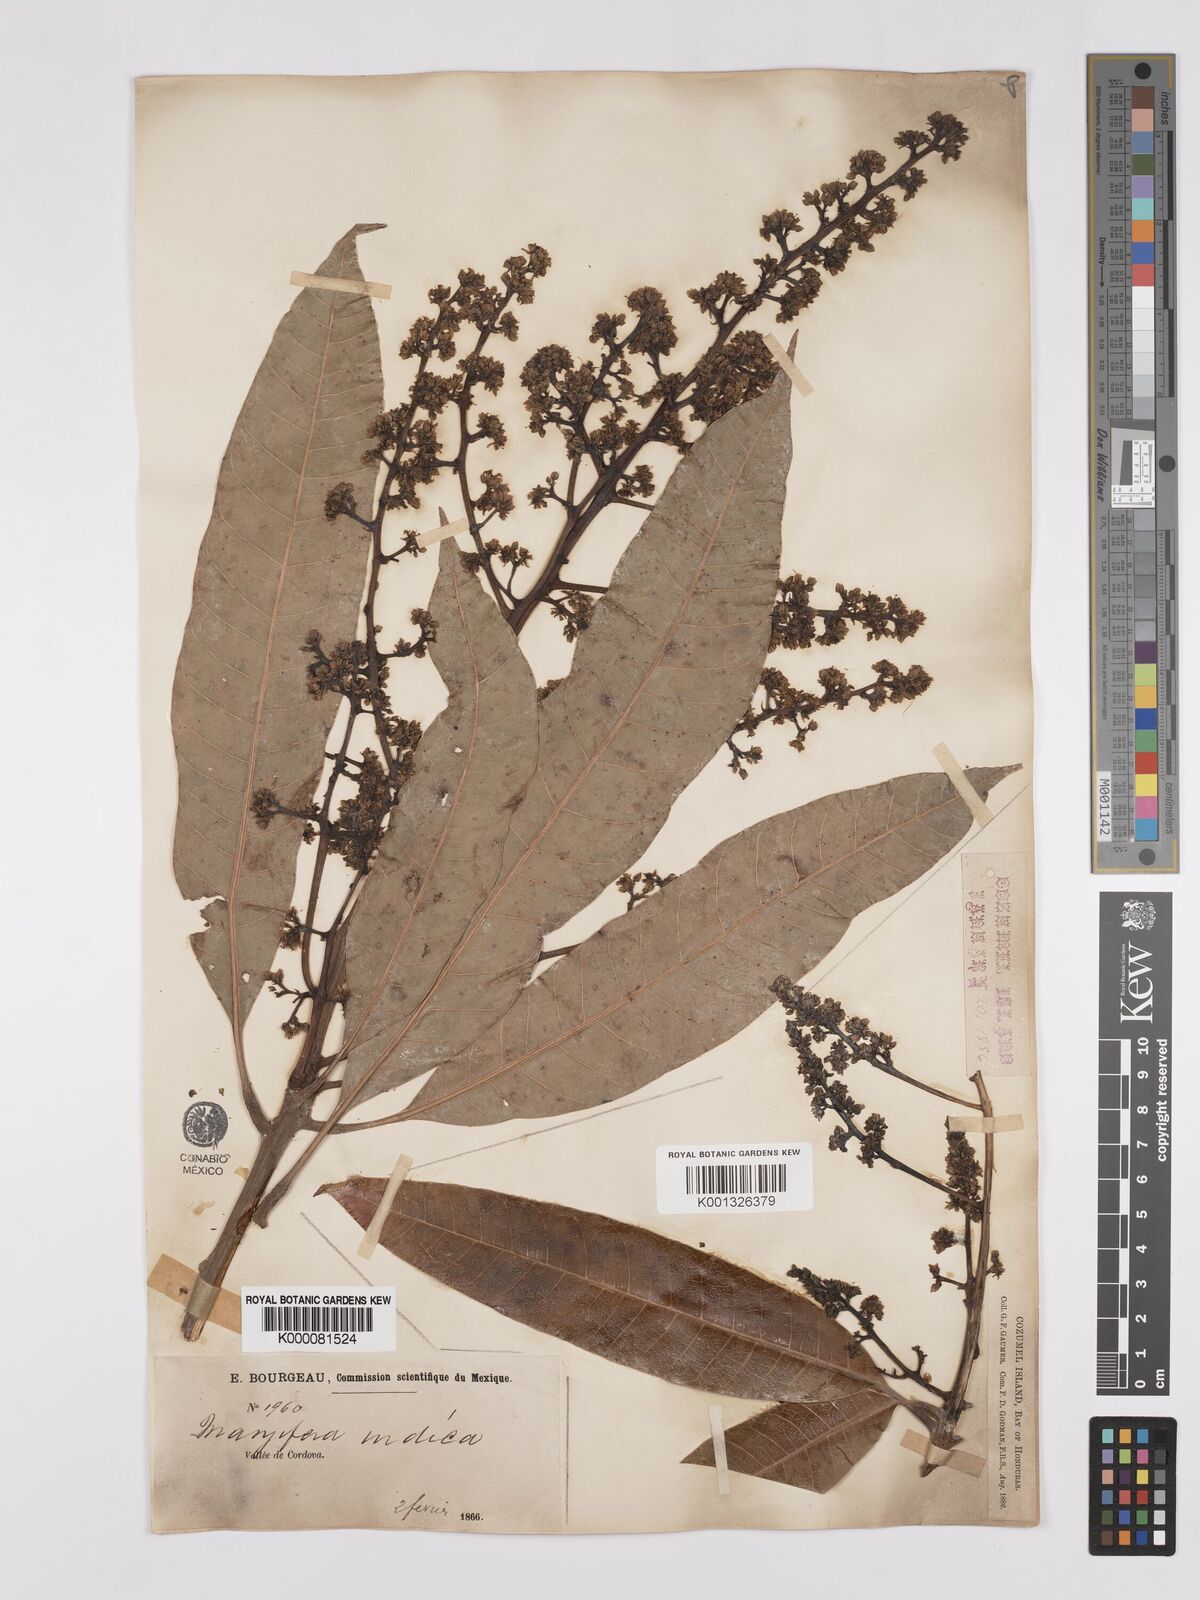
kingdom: Plantae
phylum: Tracheophyta
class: Magnoliopsida
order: Sapindales
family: Anacardiaceae
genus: Mangifera
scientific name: Mangifera indica
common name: Mango
